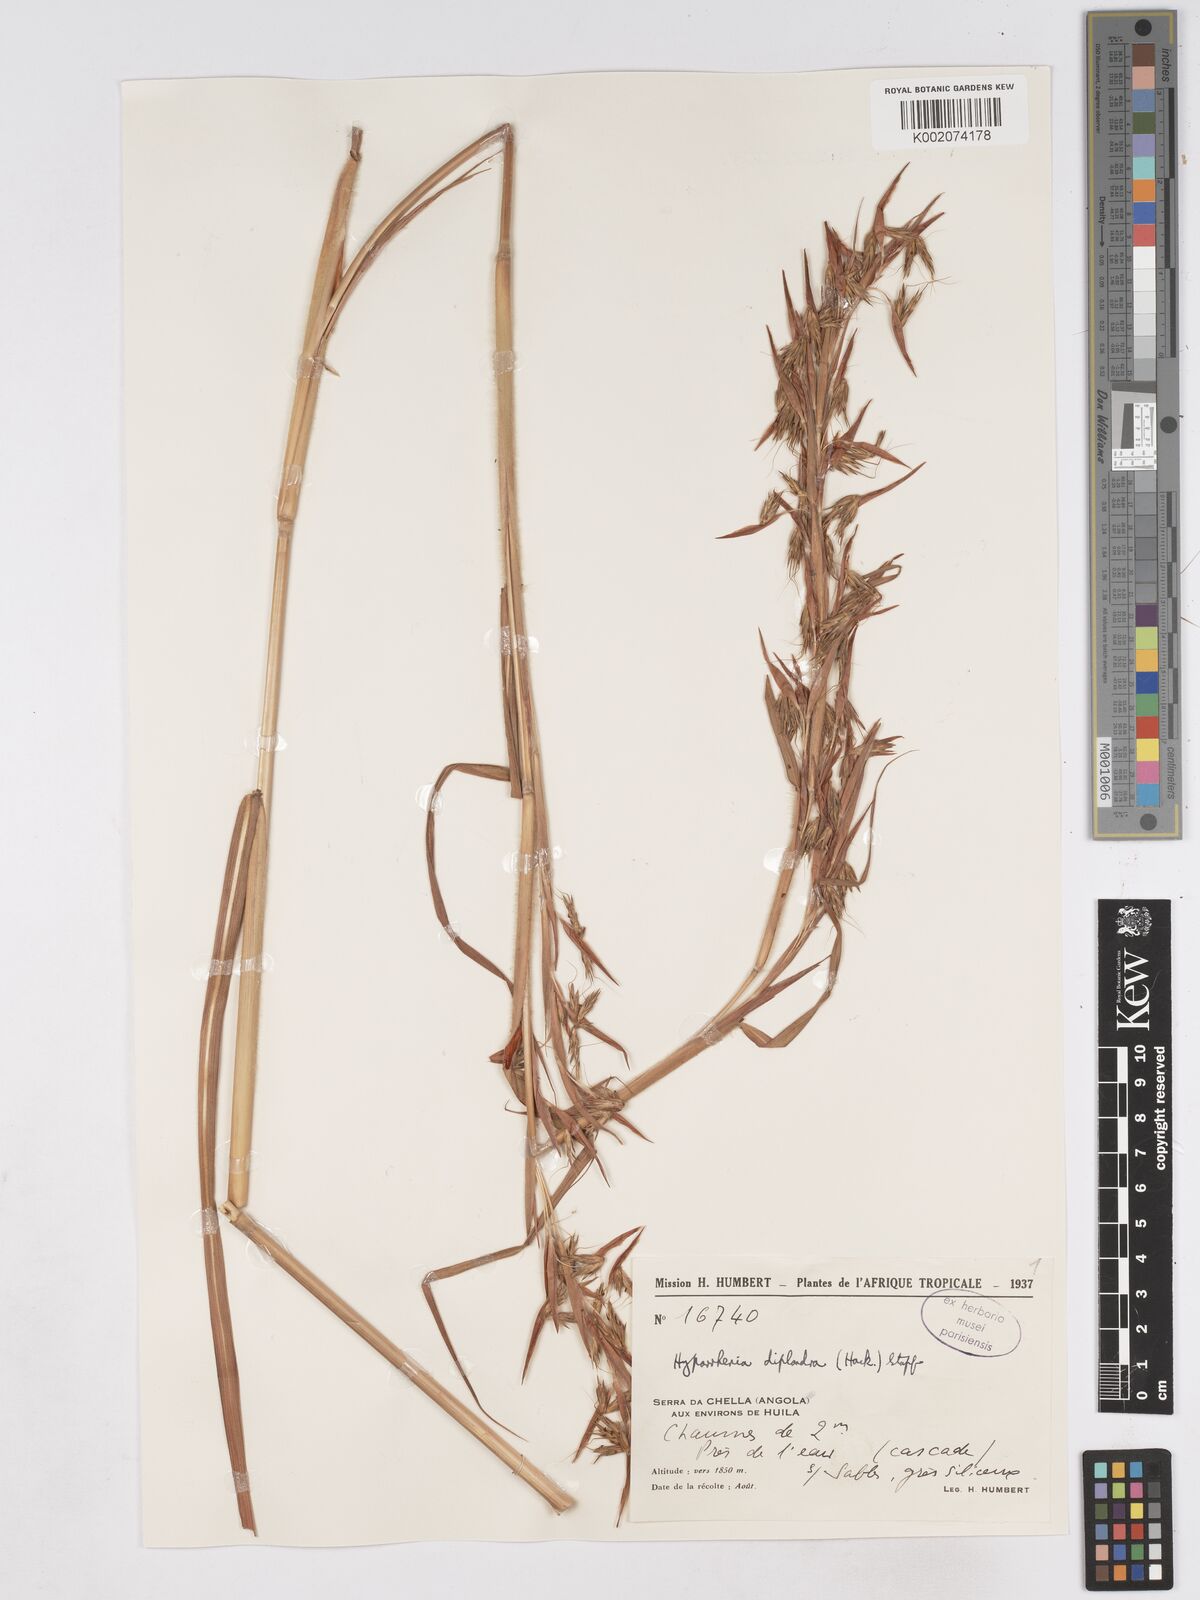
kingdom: Plantae
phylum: Tracheophyta
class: Liliopsida
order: Poales
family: Poaceae
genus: Hyparrhenia
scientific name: Hyparrhenia diplandra
